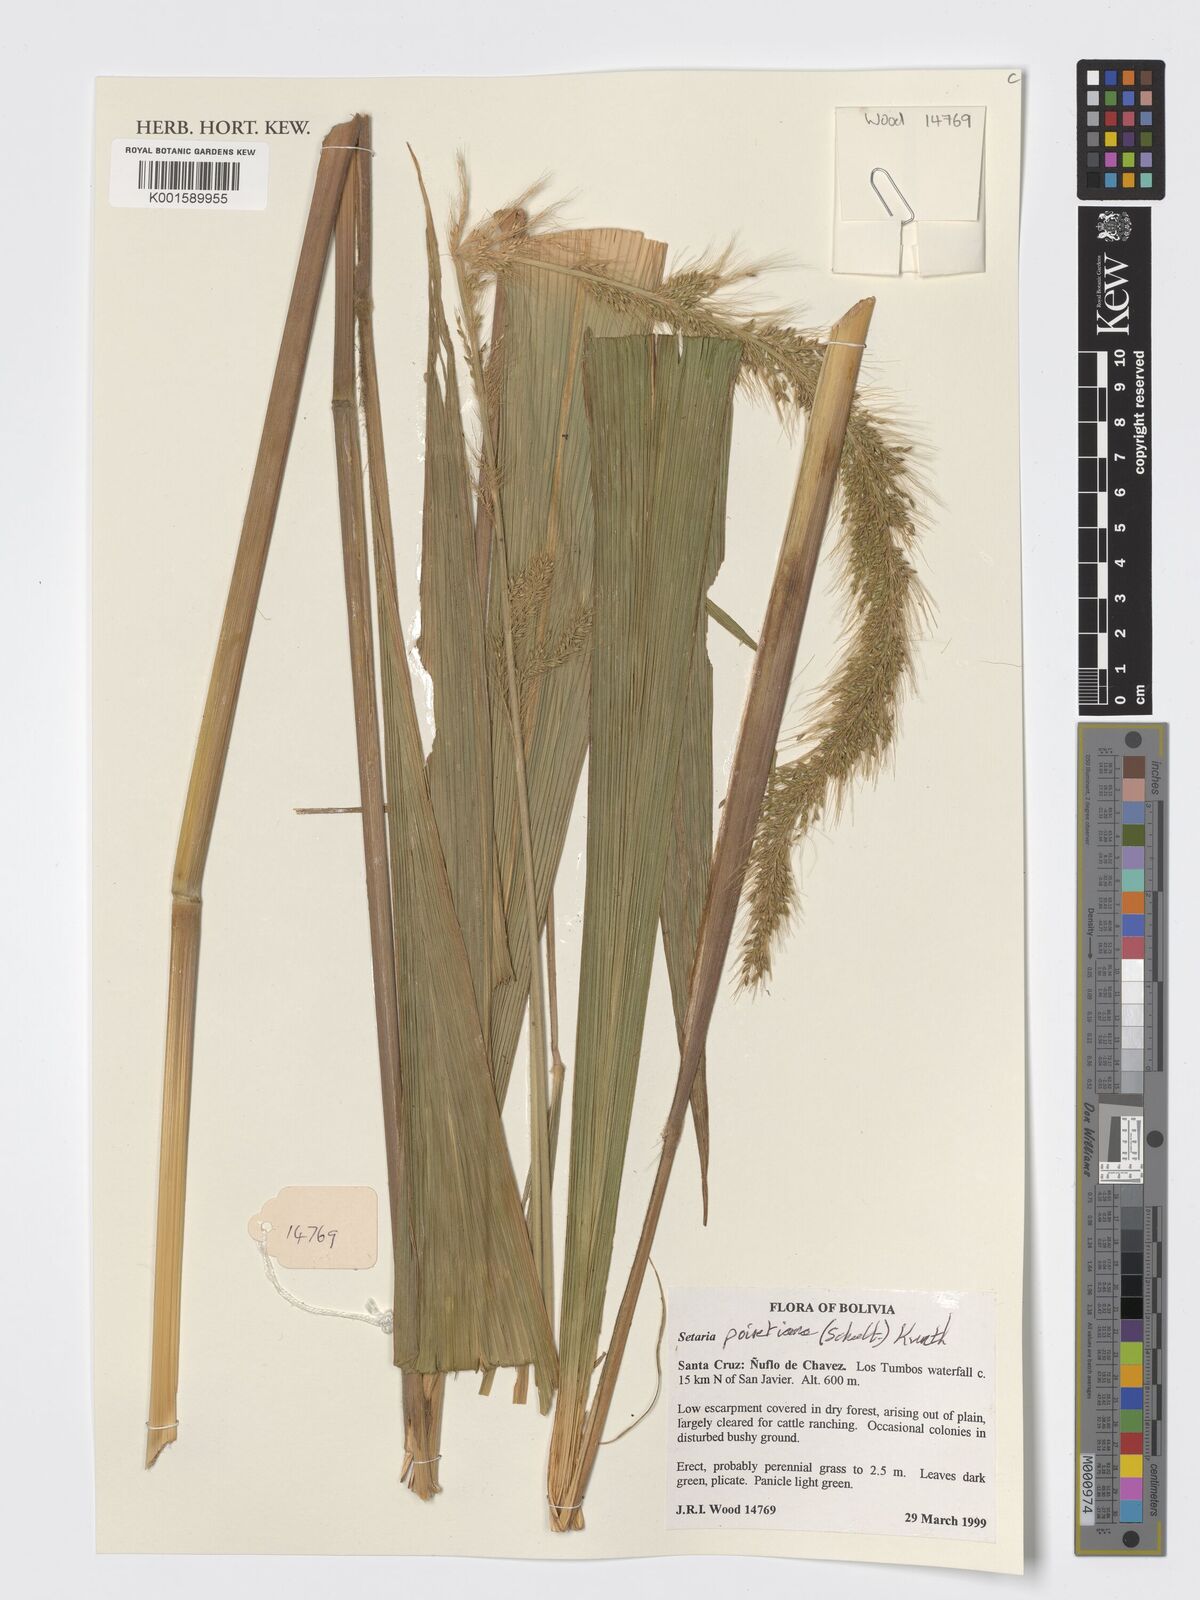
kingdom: Plantae
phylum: Tracheophyta
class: Liliopsida
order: Poales
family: Poaceae
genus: Setaria
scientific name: Setaria poiretiana
